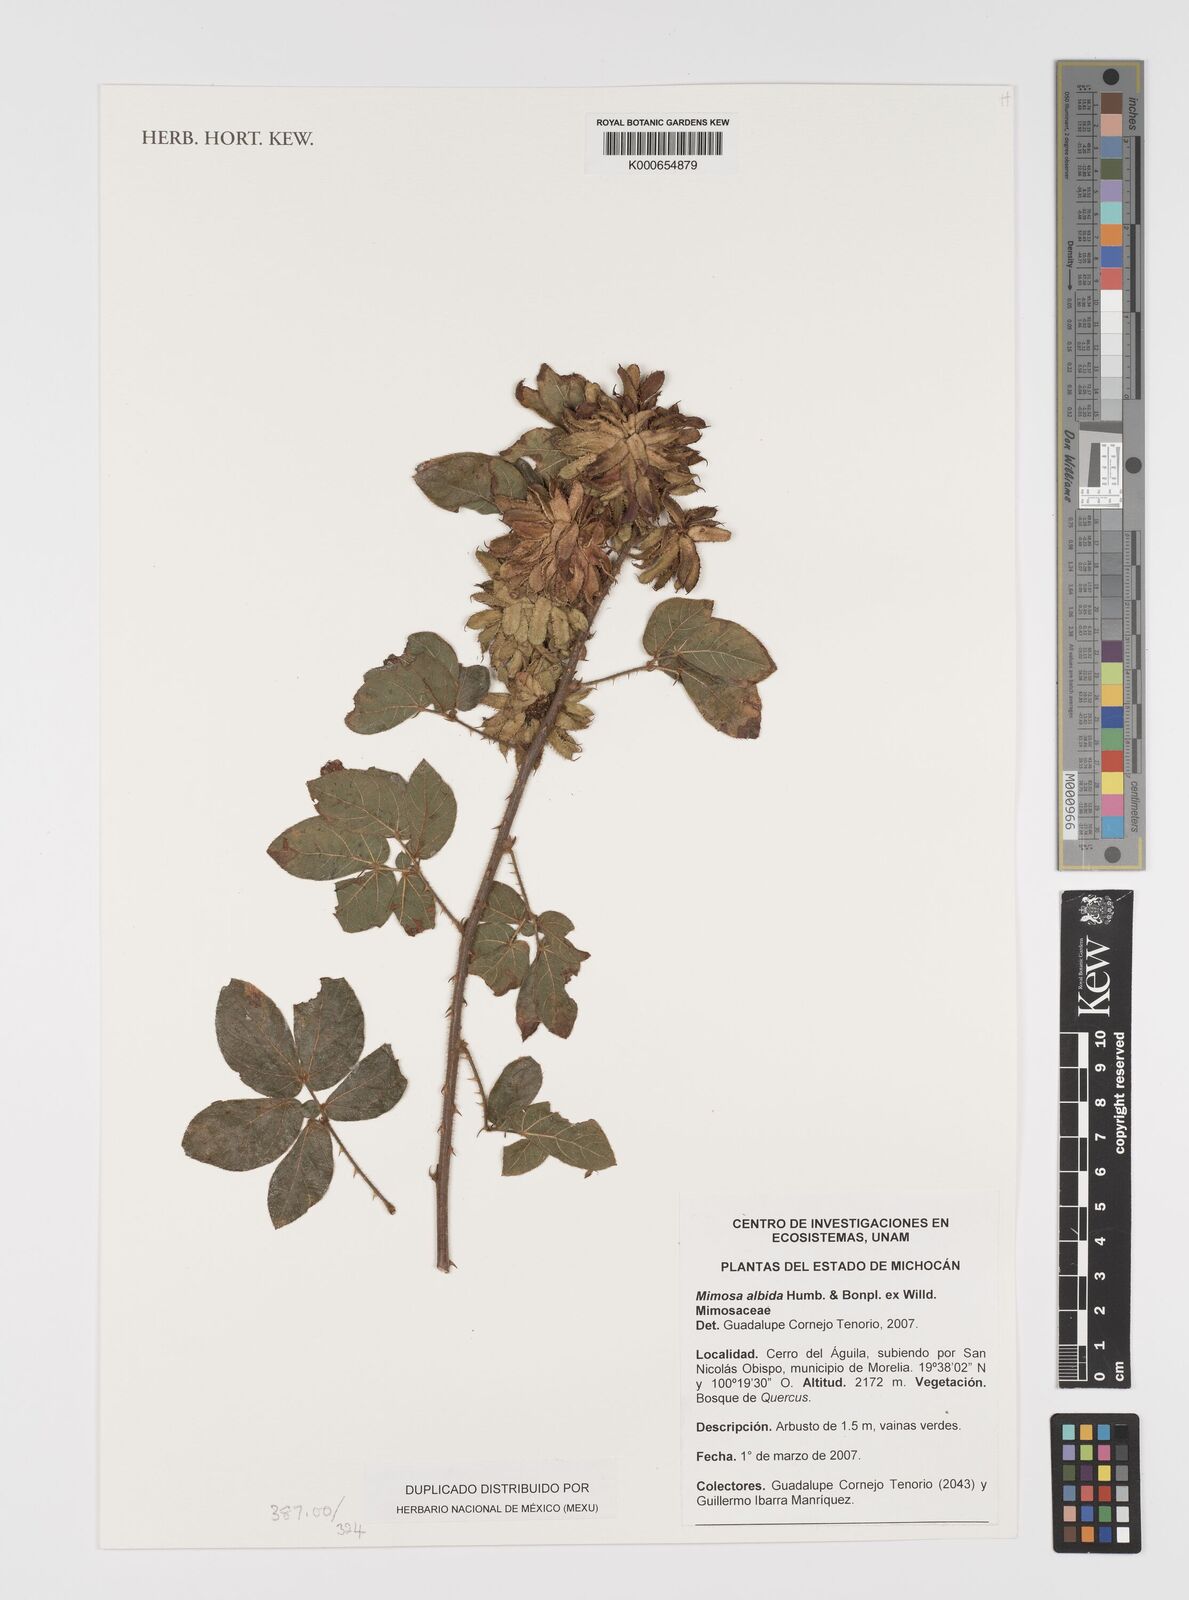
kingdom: Plantae
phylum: Tracheophyta
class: Magnoliopsida
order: Fabales
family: Fabaceae
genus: Mimosa
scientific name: Mimosa albida
